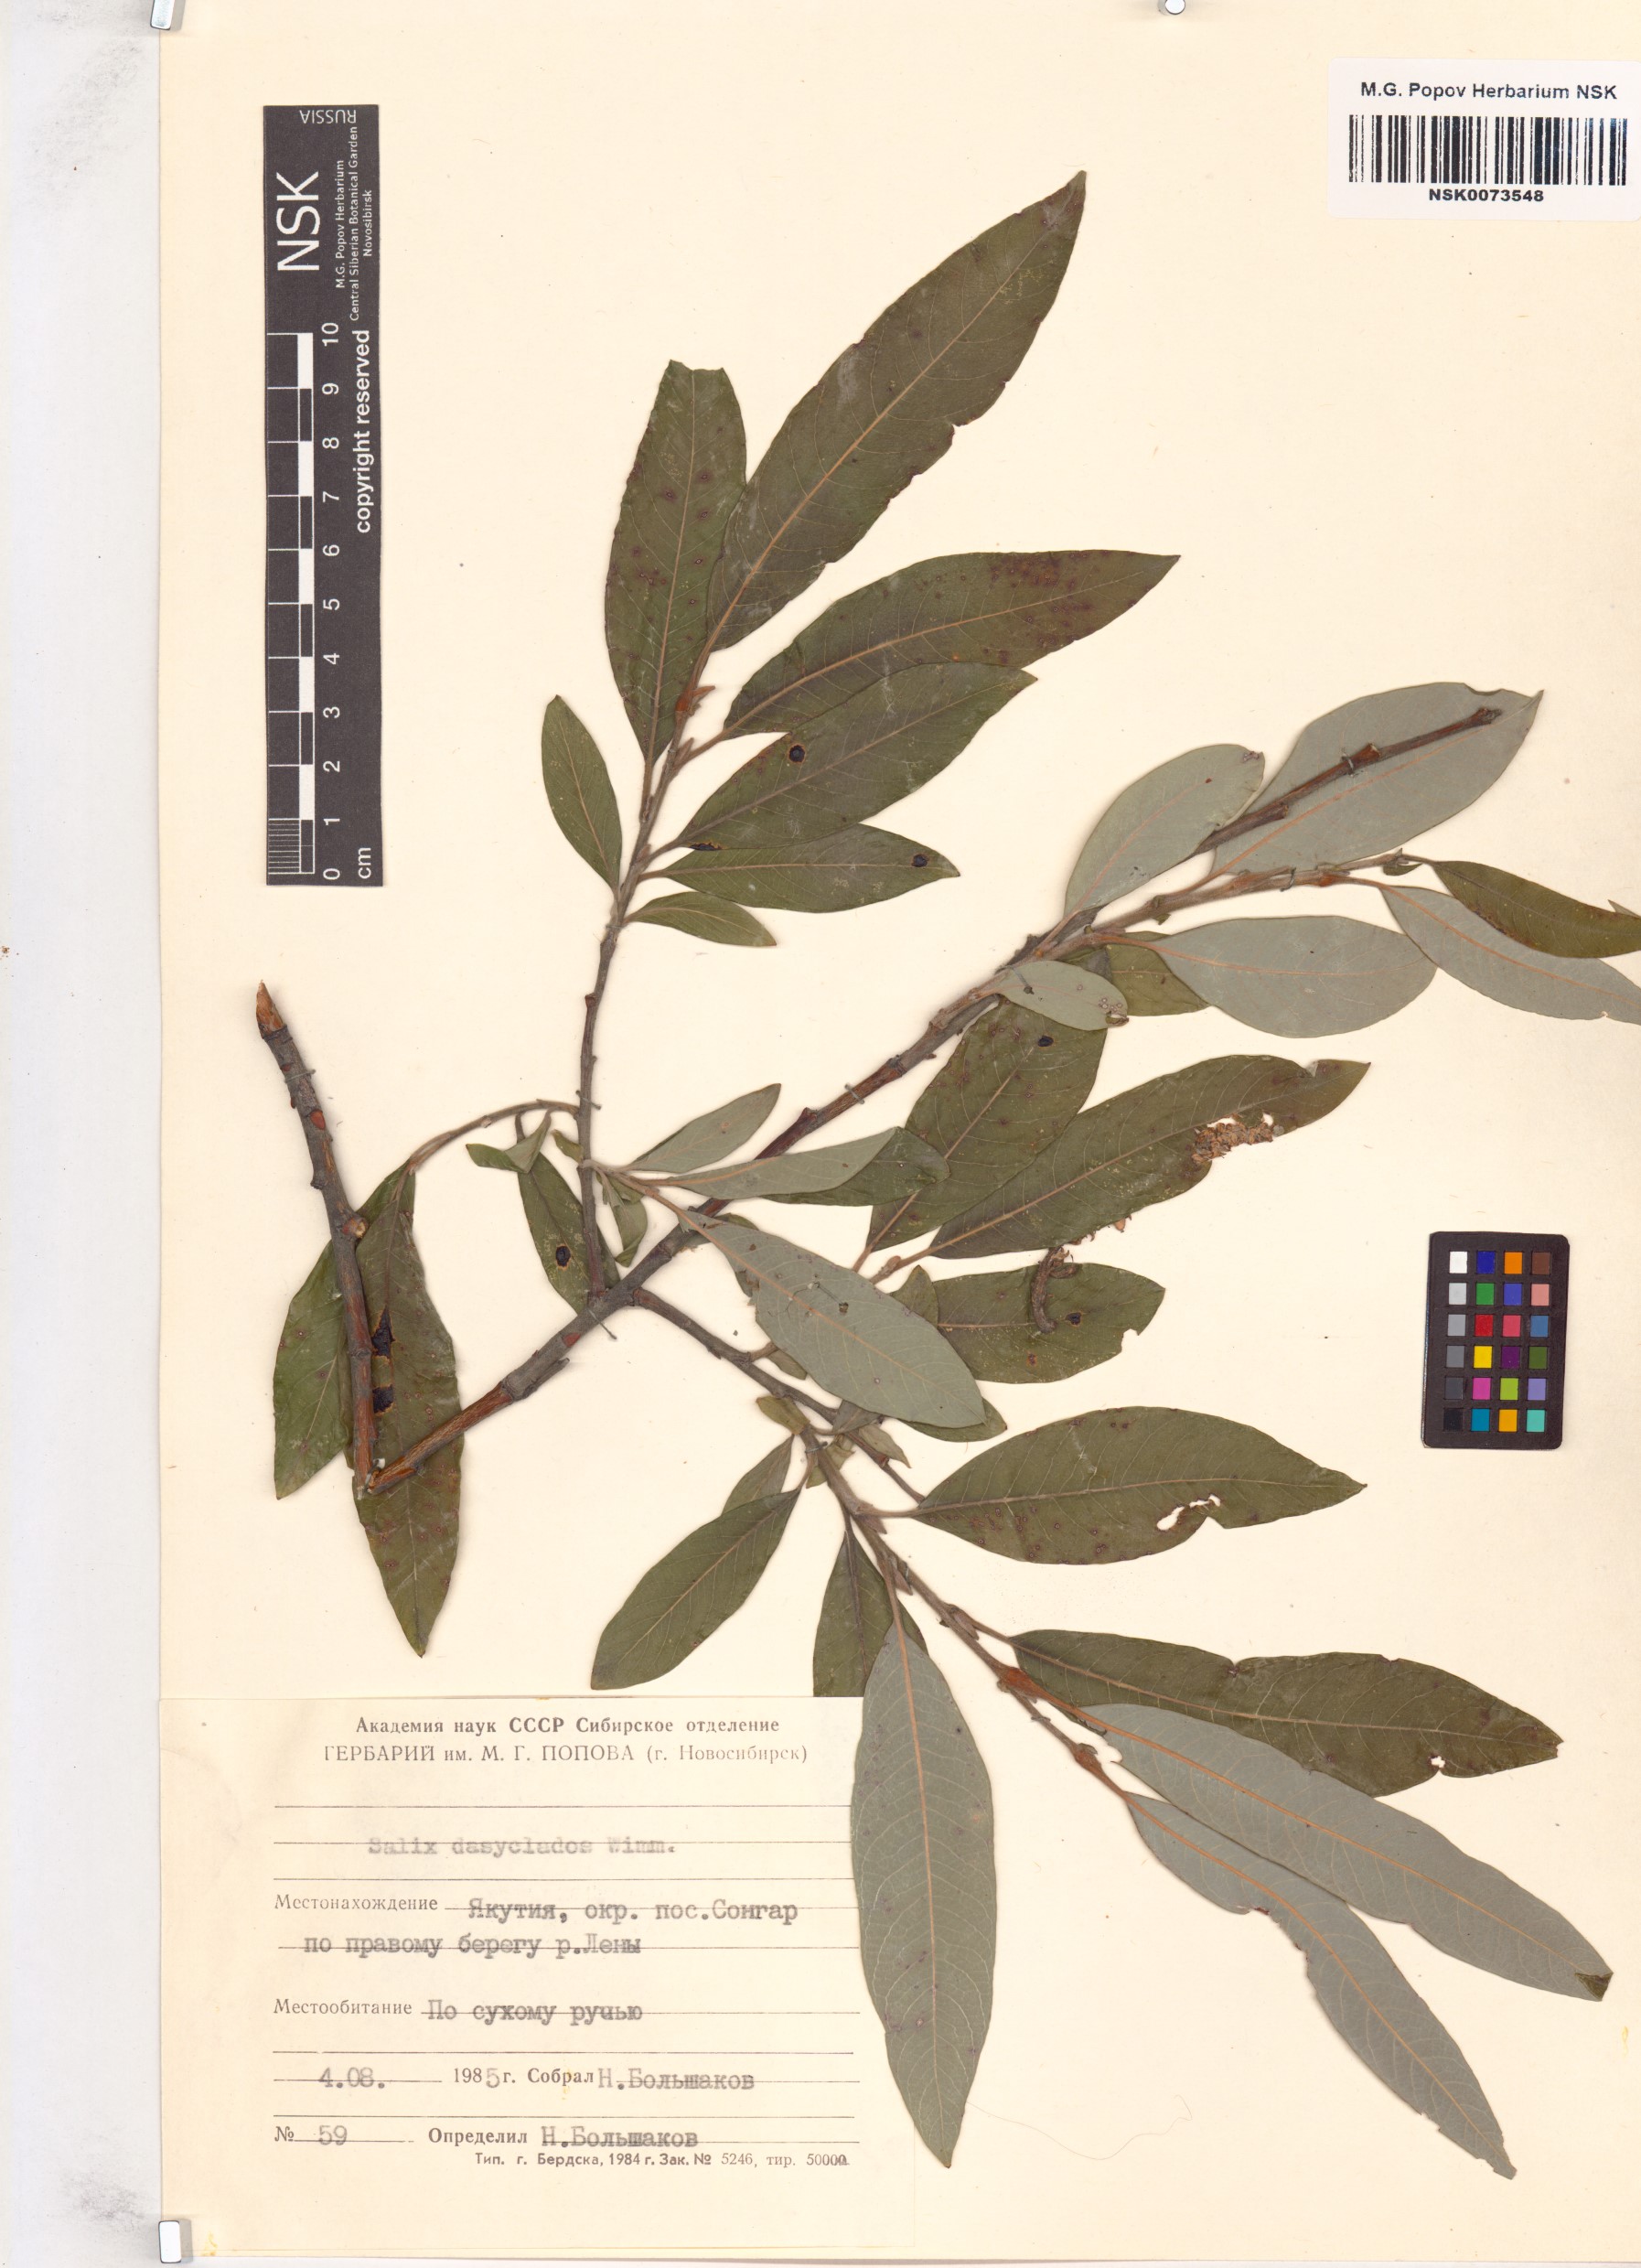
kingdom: Plantae
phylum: Tracheophyta
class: Magnoliopsida
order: Malpighiales
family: Salicaceae
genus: Salix
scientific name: Salix gmelinii
